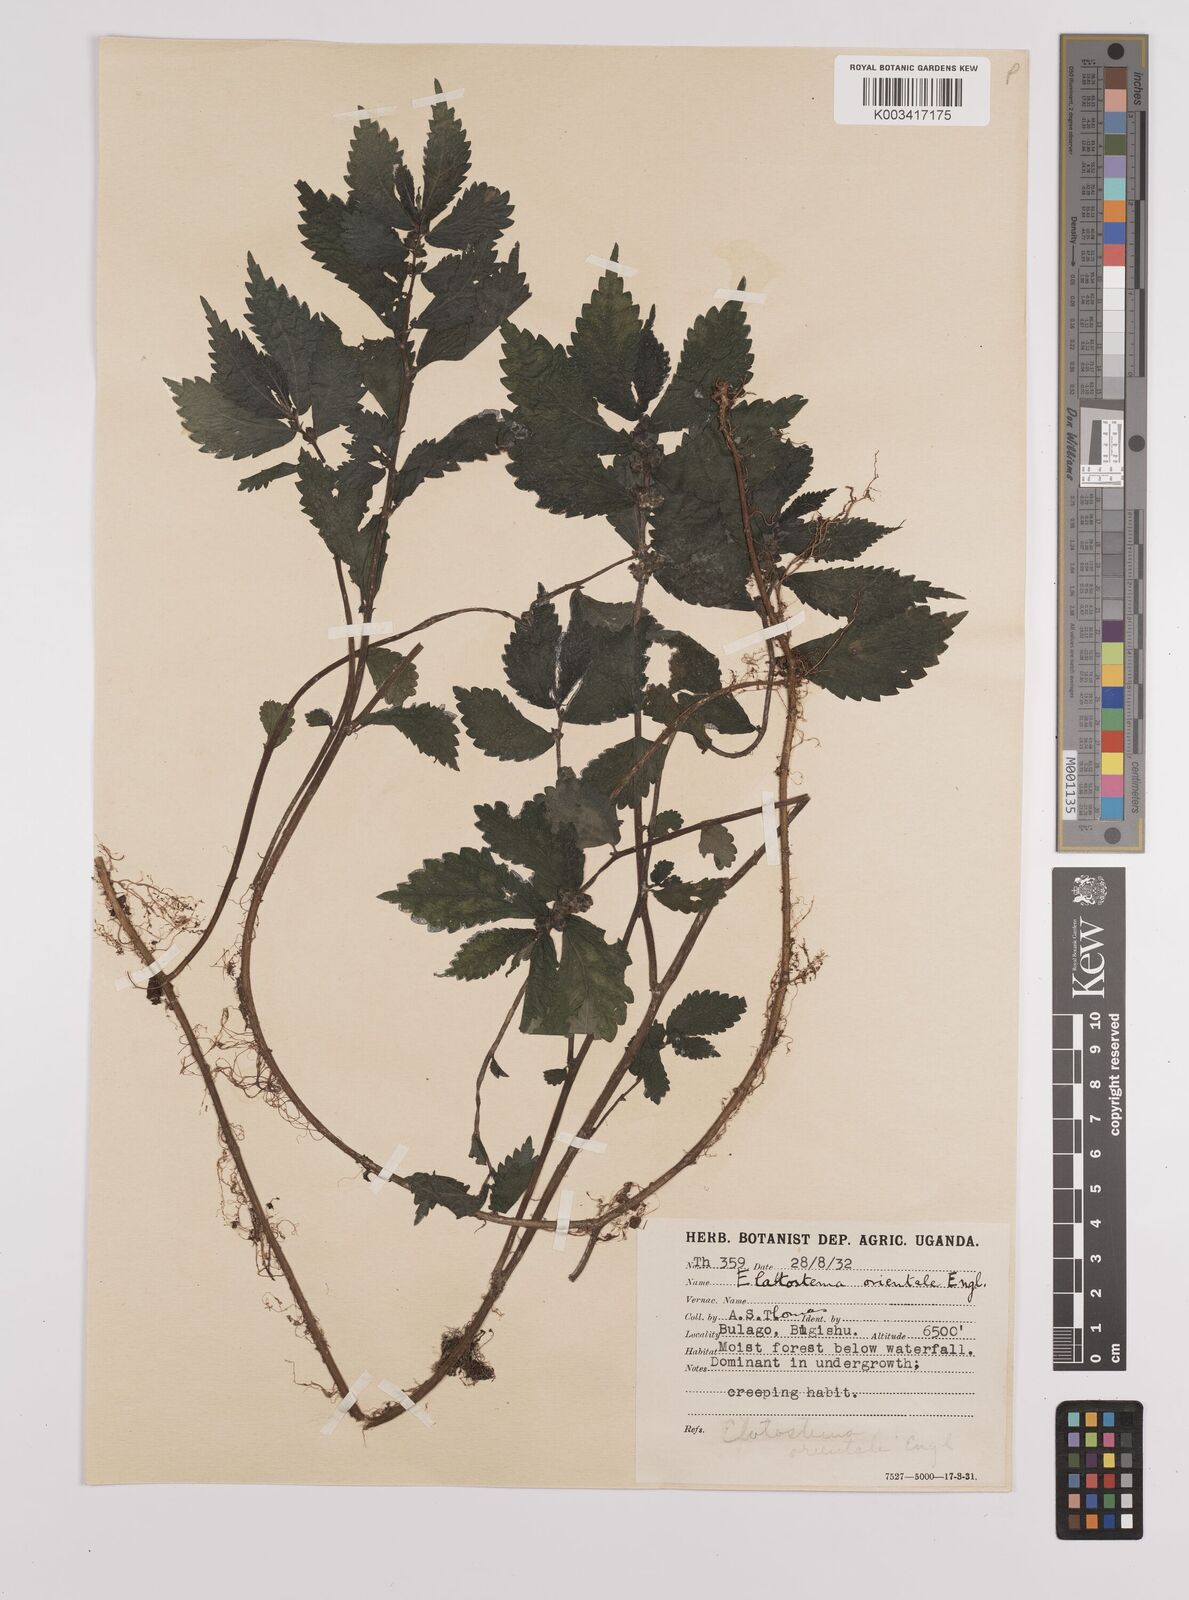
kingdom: Plantae
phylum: Tracheophyta
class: Magnoliopsida
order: Rosales
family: Urticaceae
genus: Elatostema
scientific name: Elatostema monticola
